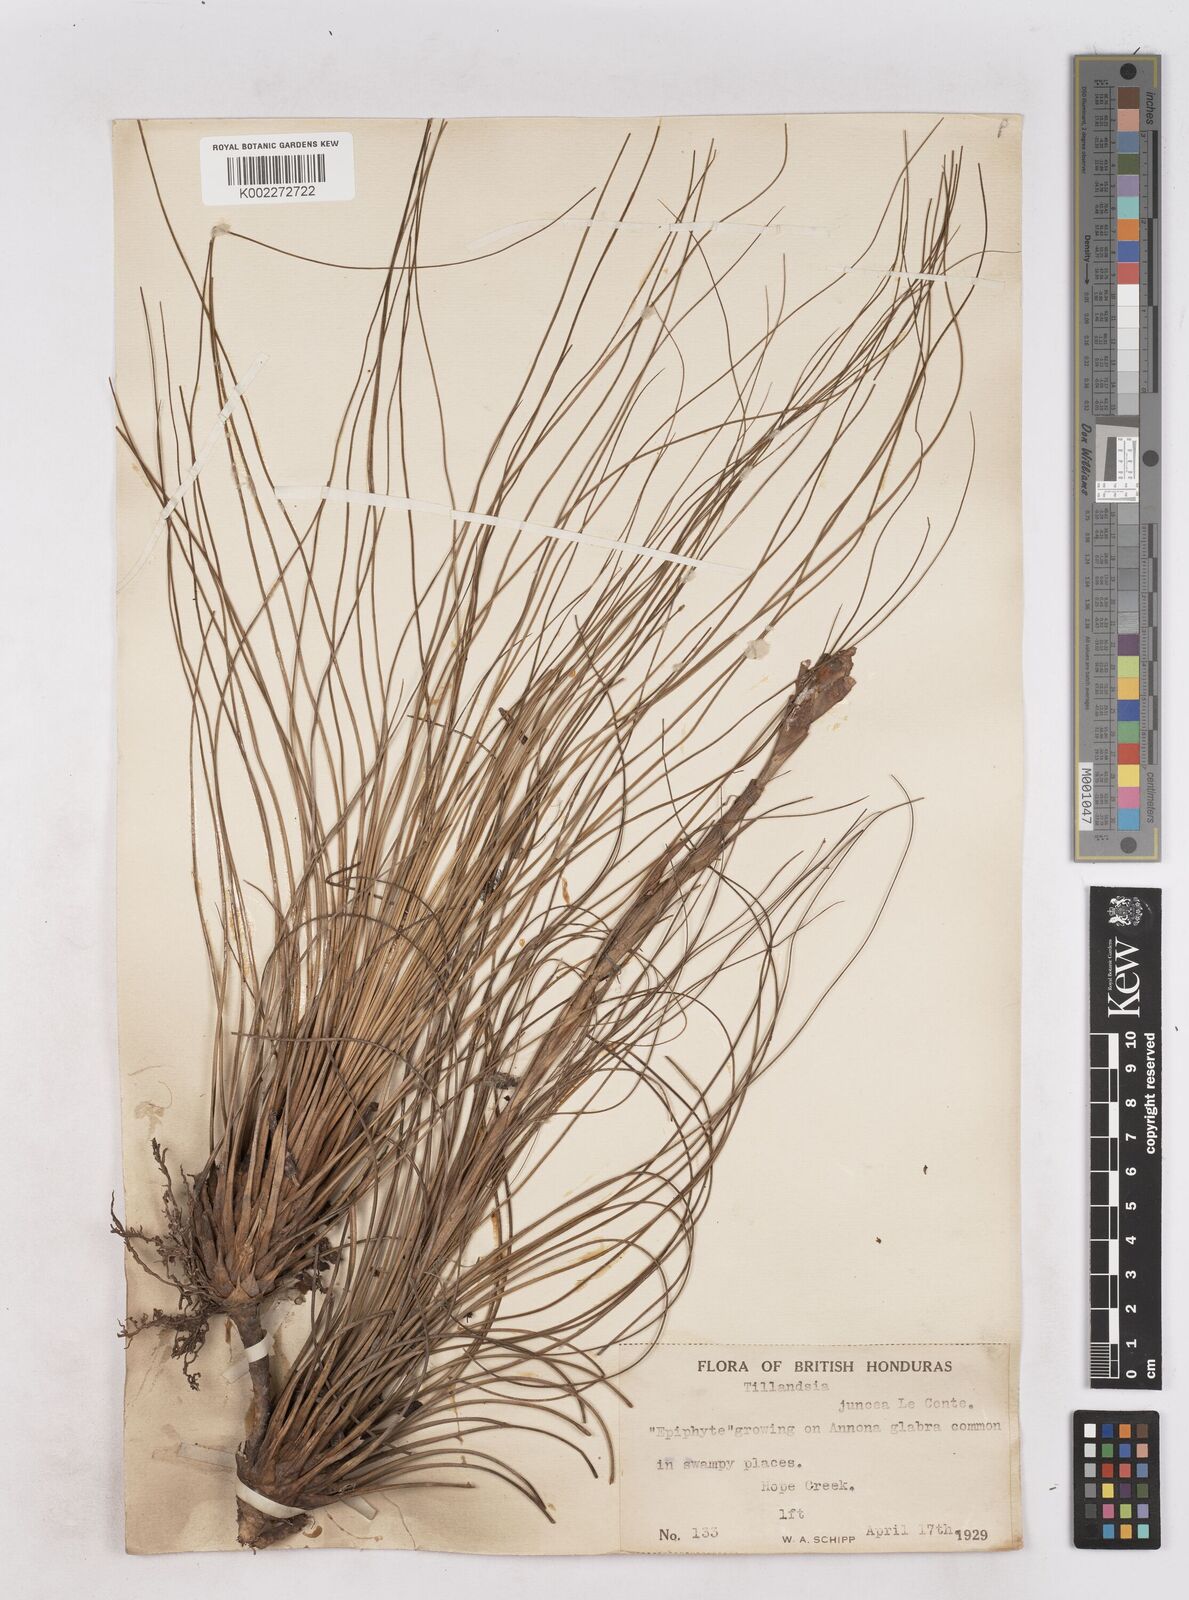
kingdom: Plantae
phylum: Tracheophyta
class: Liliopsida
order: Poales
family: Bromeliaceae
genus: Tillandsia
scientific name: Tillandsia
